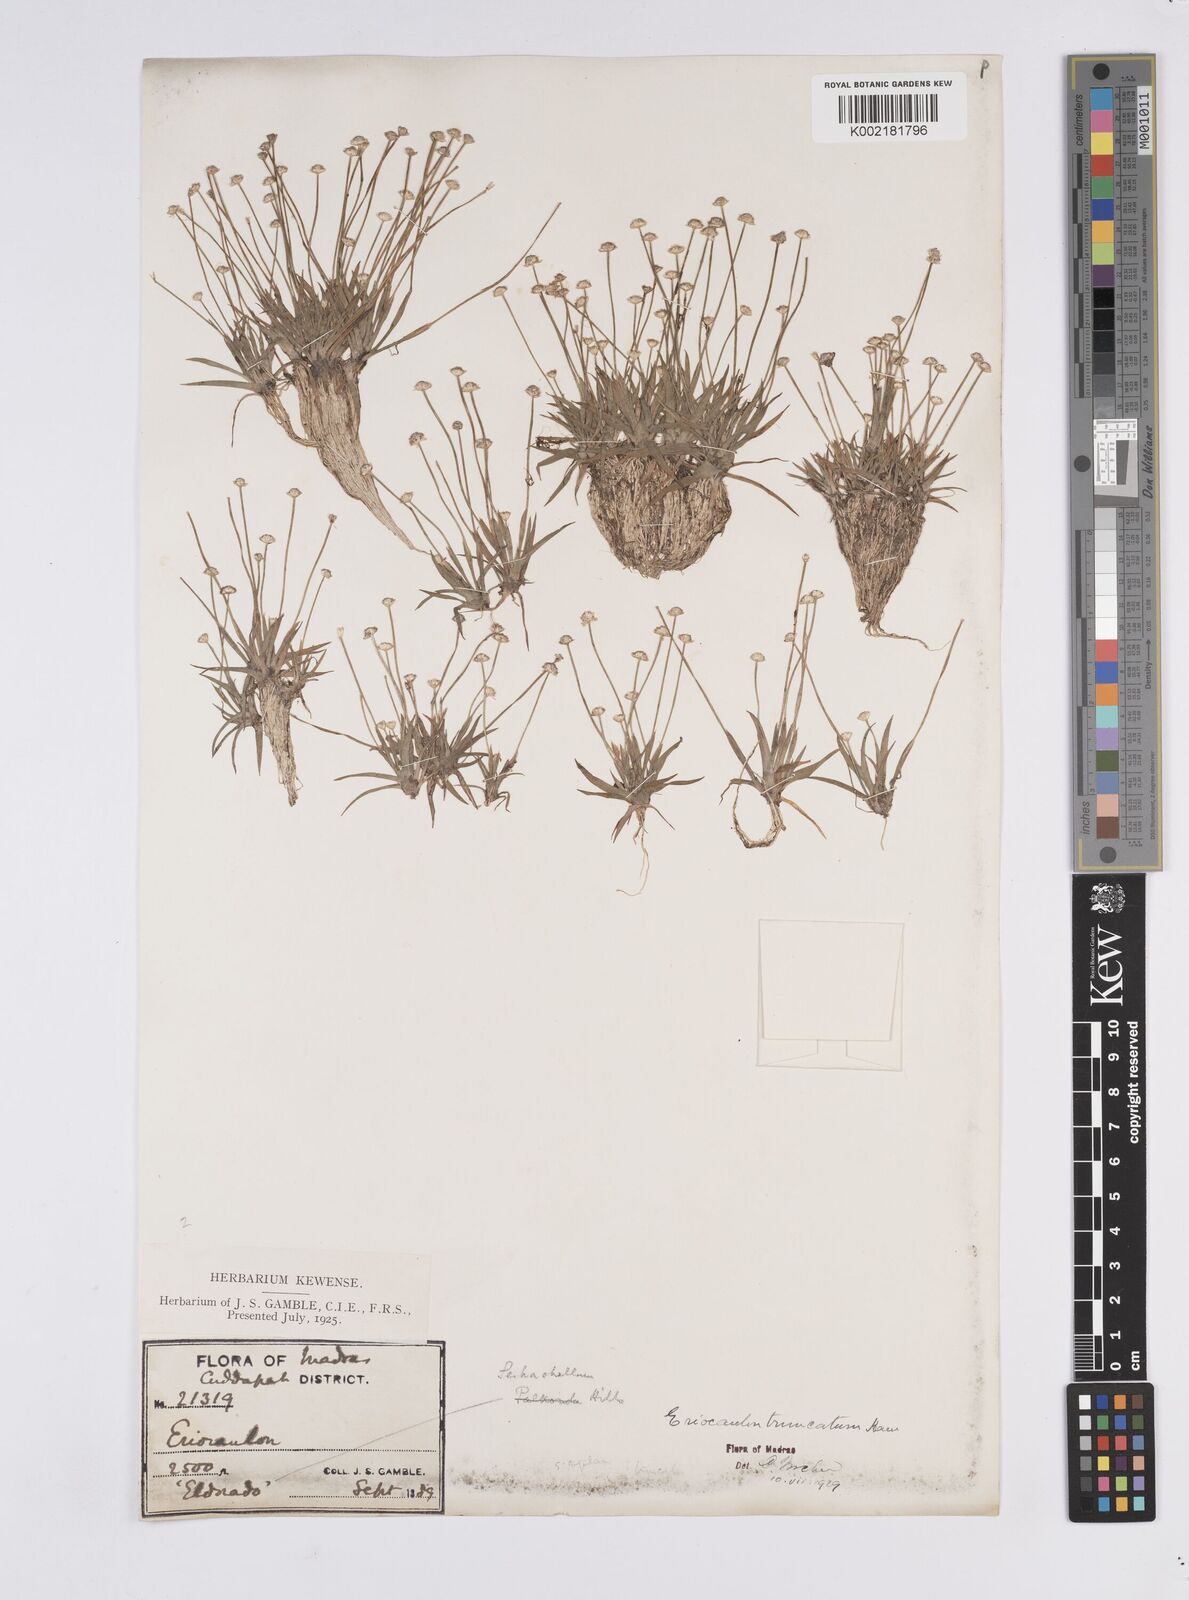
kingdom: Plantae
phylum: Tracheophyta
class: Liliopsida
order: Poales
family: Eriocaulaceae
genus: Eriocaulon
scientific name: Eriocaulon truncatum
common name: Short pipe-wort
